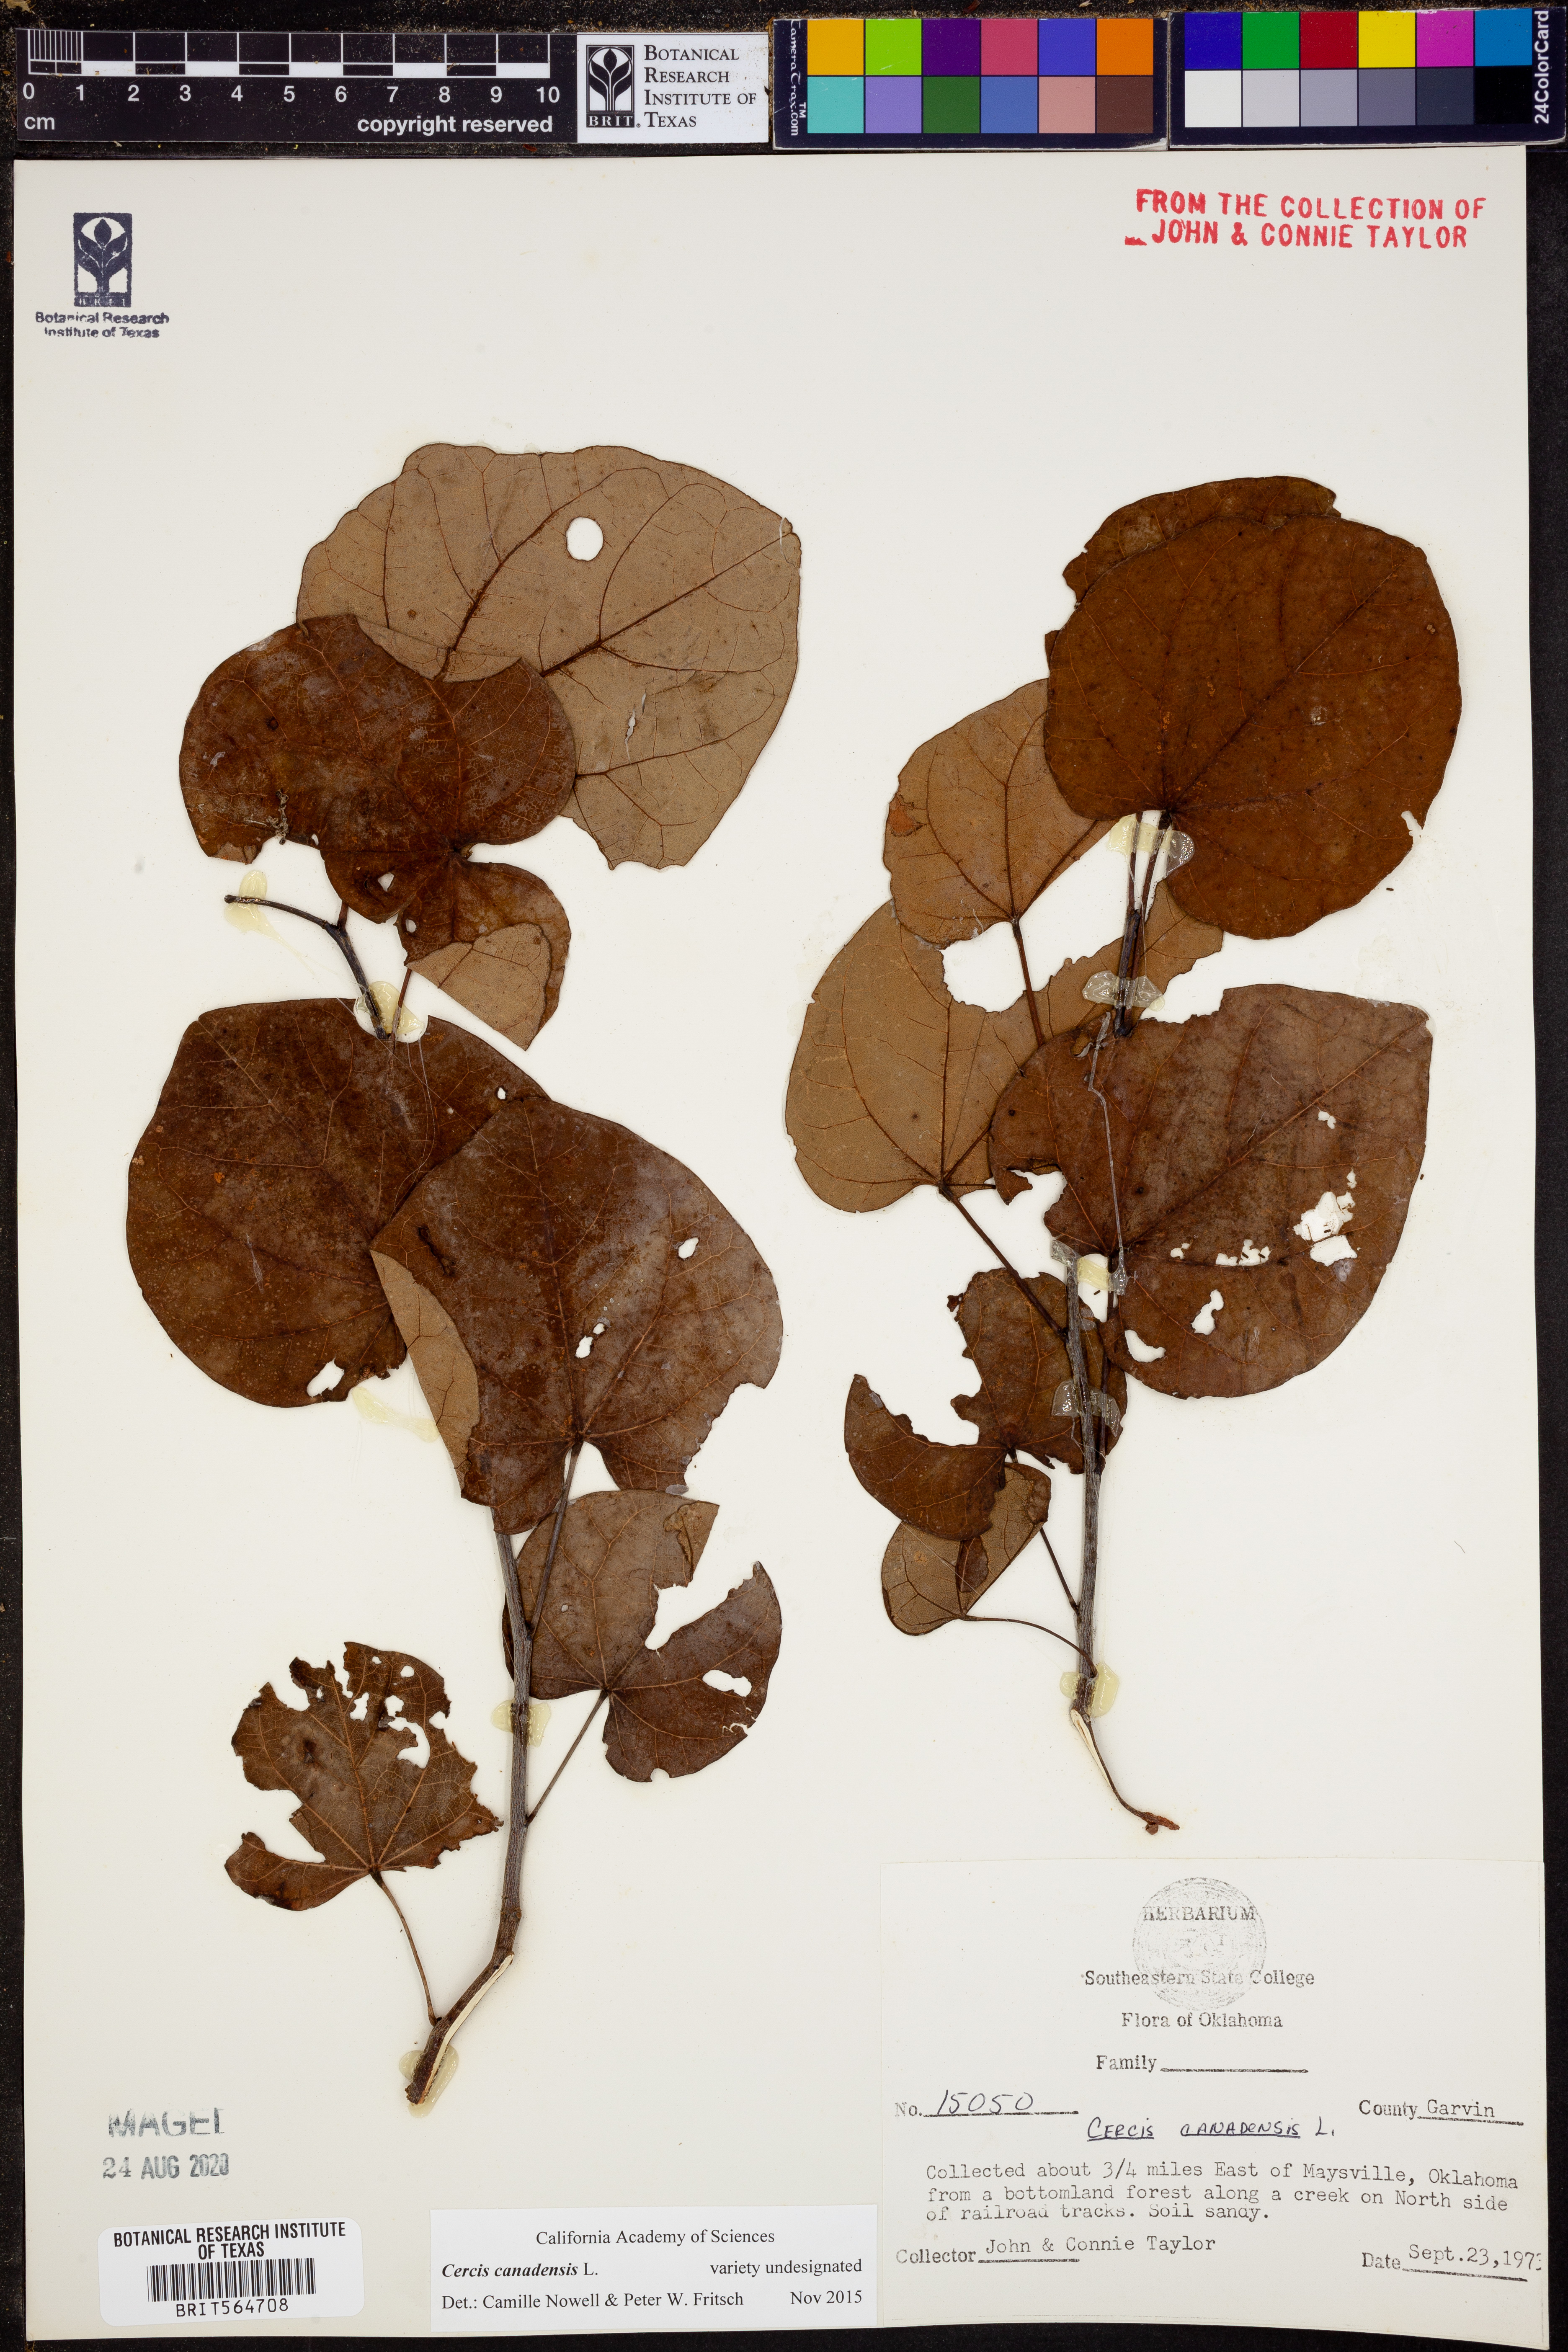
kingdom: Plantae
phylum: Tracheophyta
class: Magnoliopsida
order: Fabales
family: Fabaceae
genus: Cercis
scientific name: Cercis canadensis
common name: Eastern redbud
